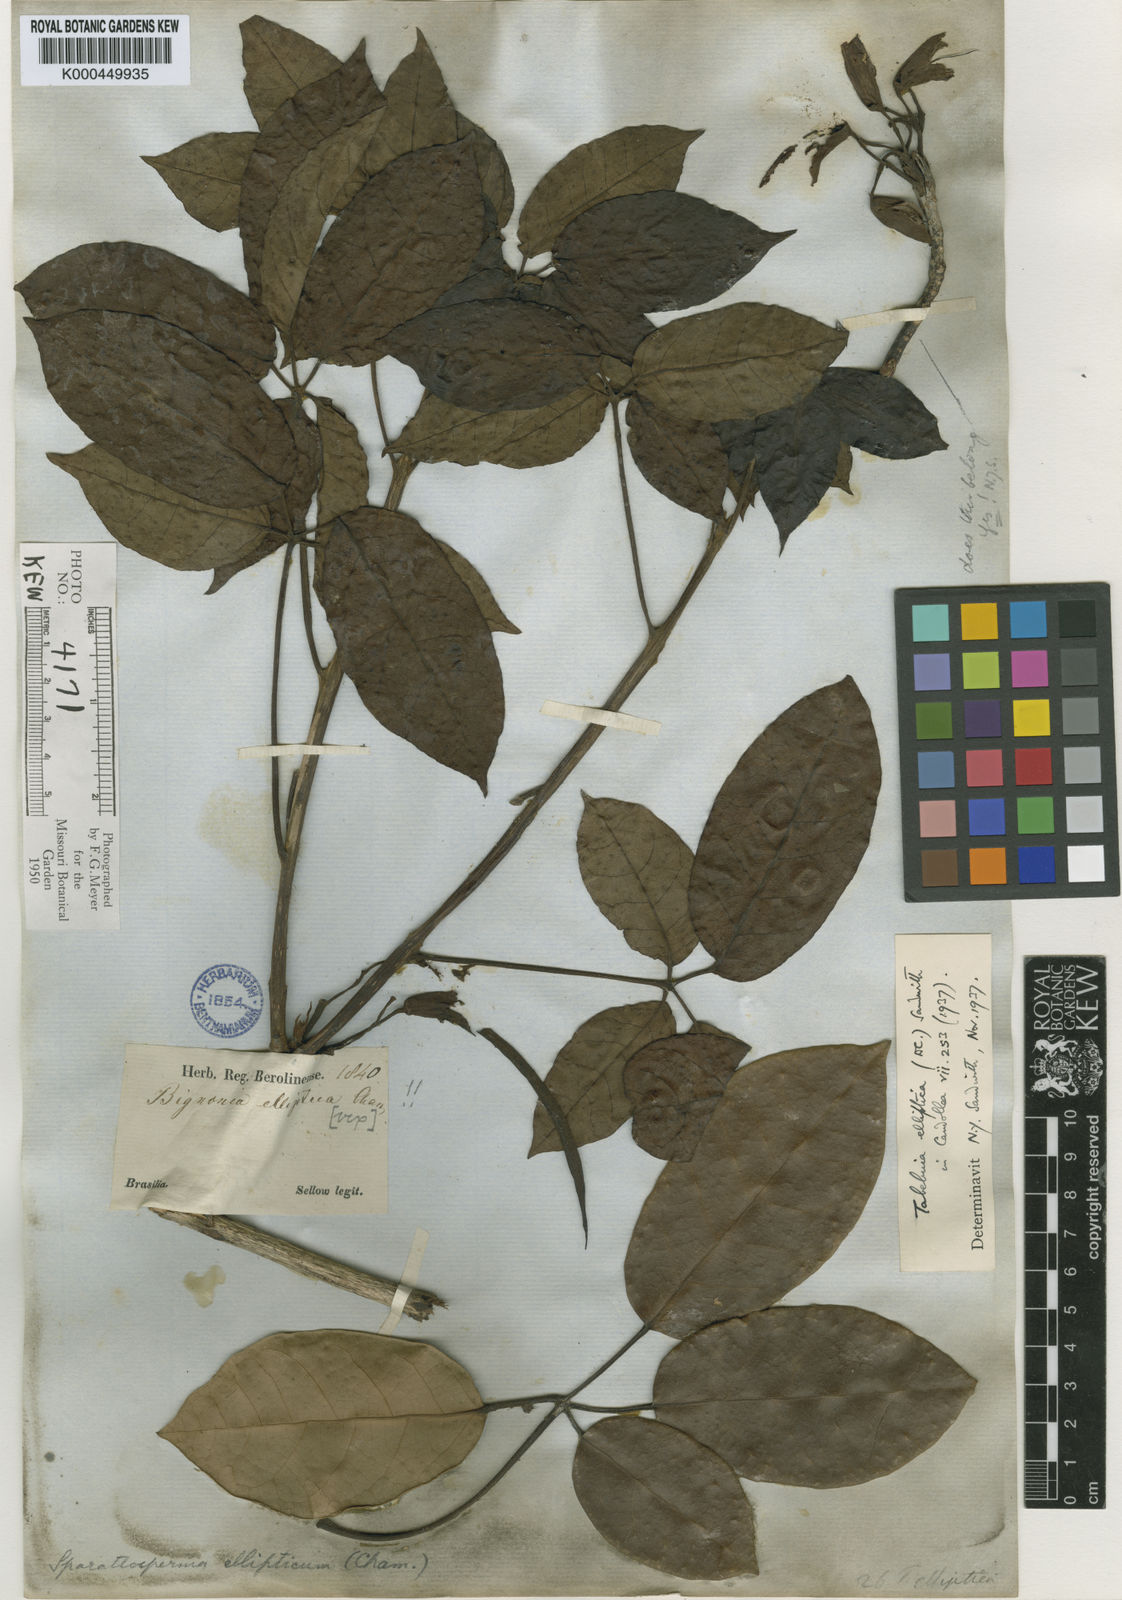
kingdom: Plantae
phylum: Tracheophyta
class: Magnoliopsida
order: Lamiales
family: Bignoniaceae
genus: Tabebuia
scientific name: Tabebuia elliptica
